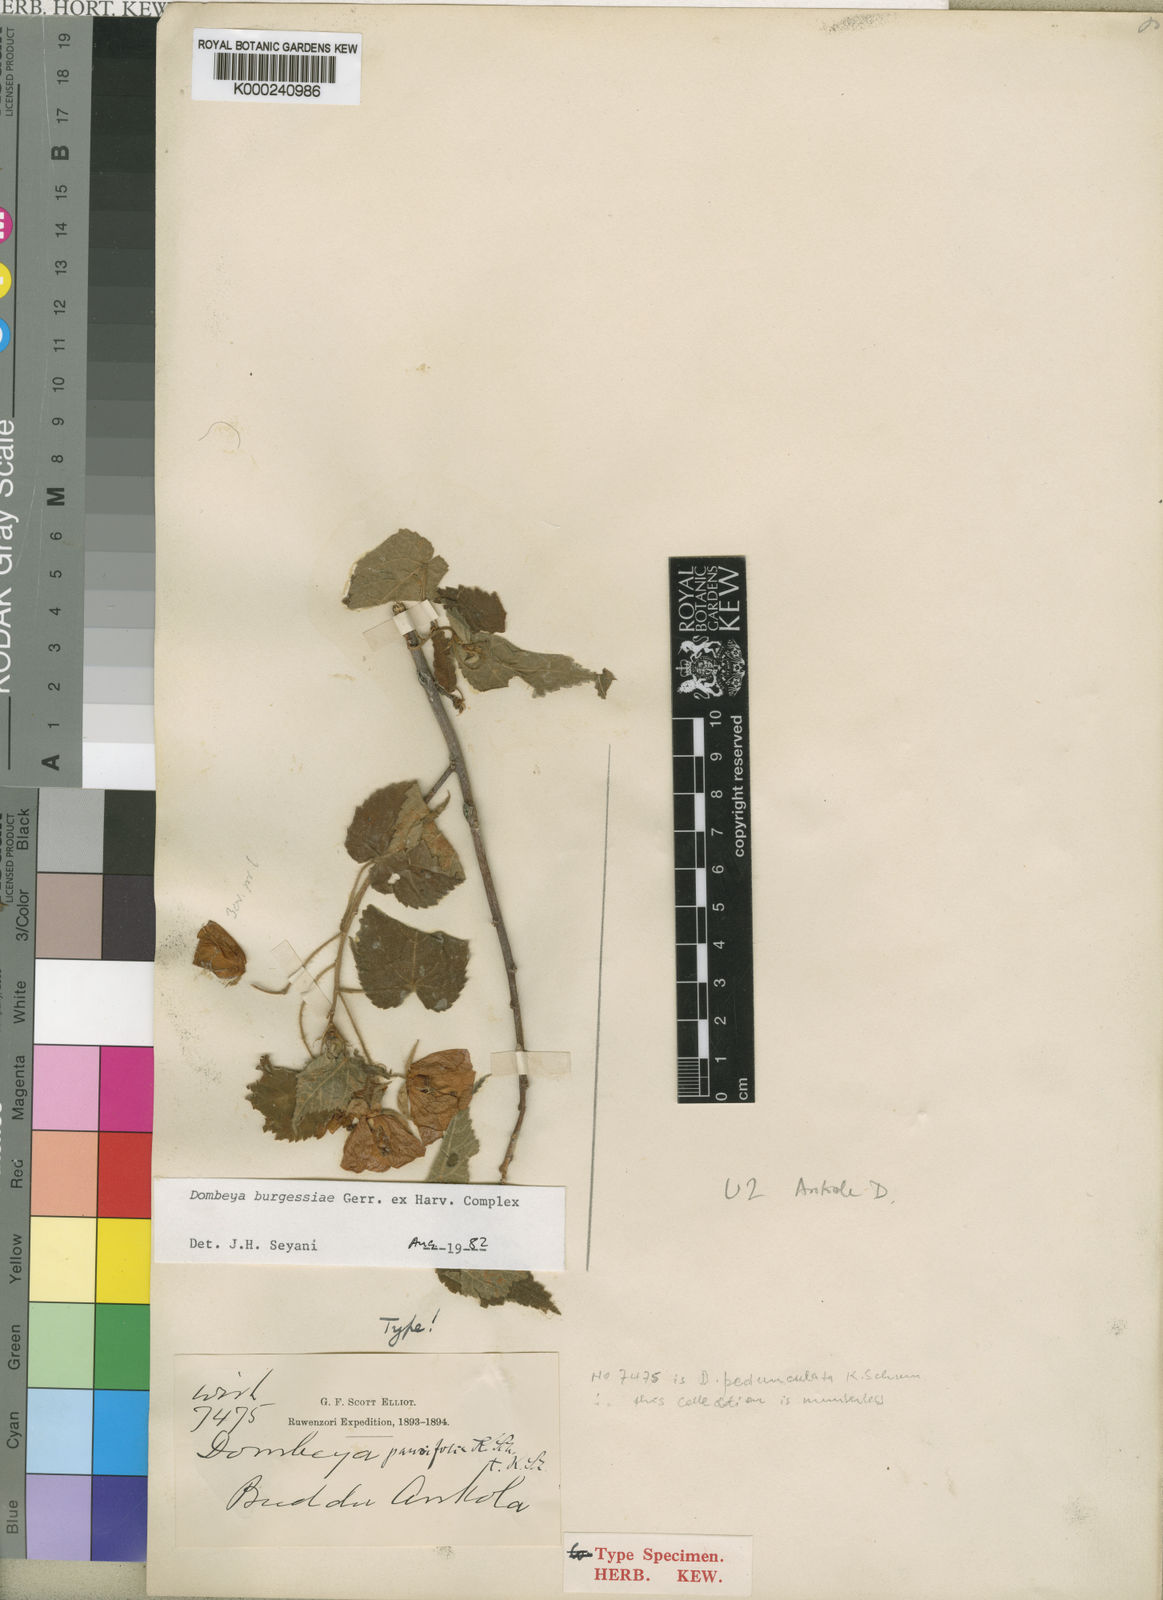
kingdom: Plantae
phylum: Tracheophyta
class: Magnoliopsida
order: Malvales
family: Malvaceae
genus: Dombeya
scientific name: Dombeya burgessiae
